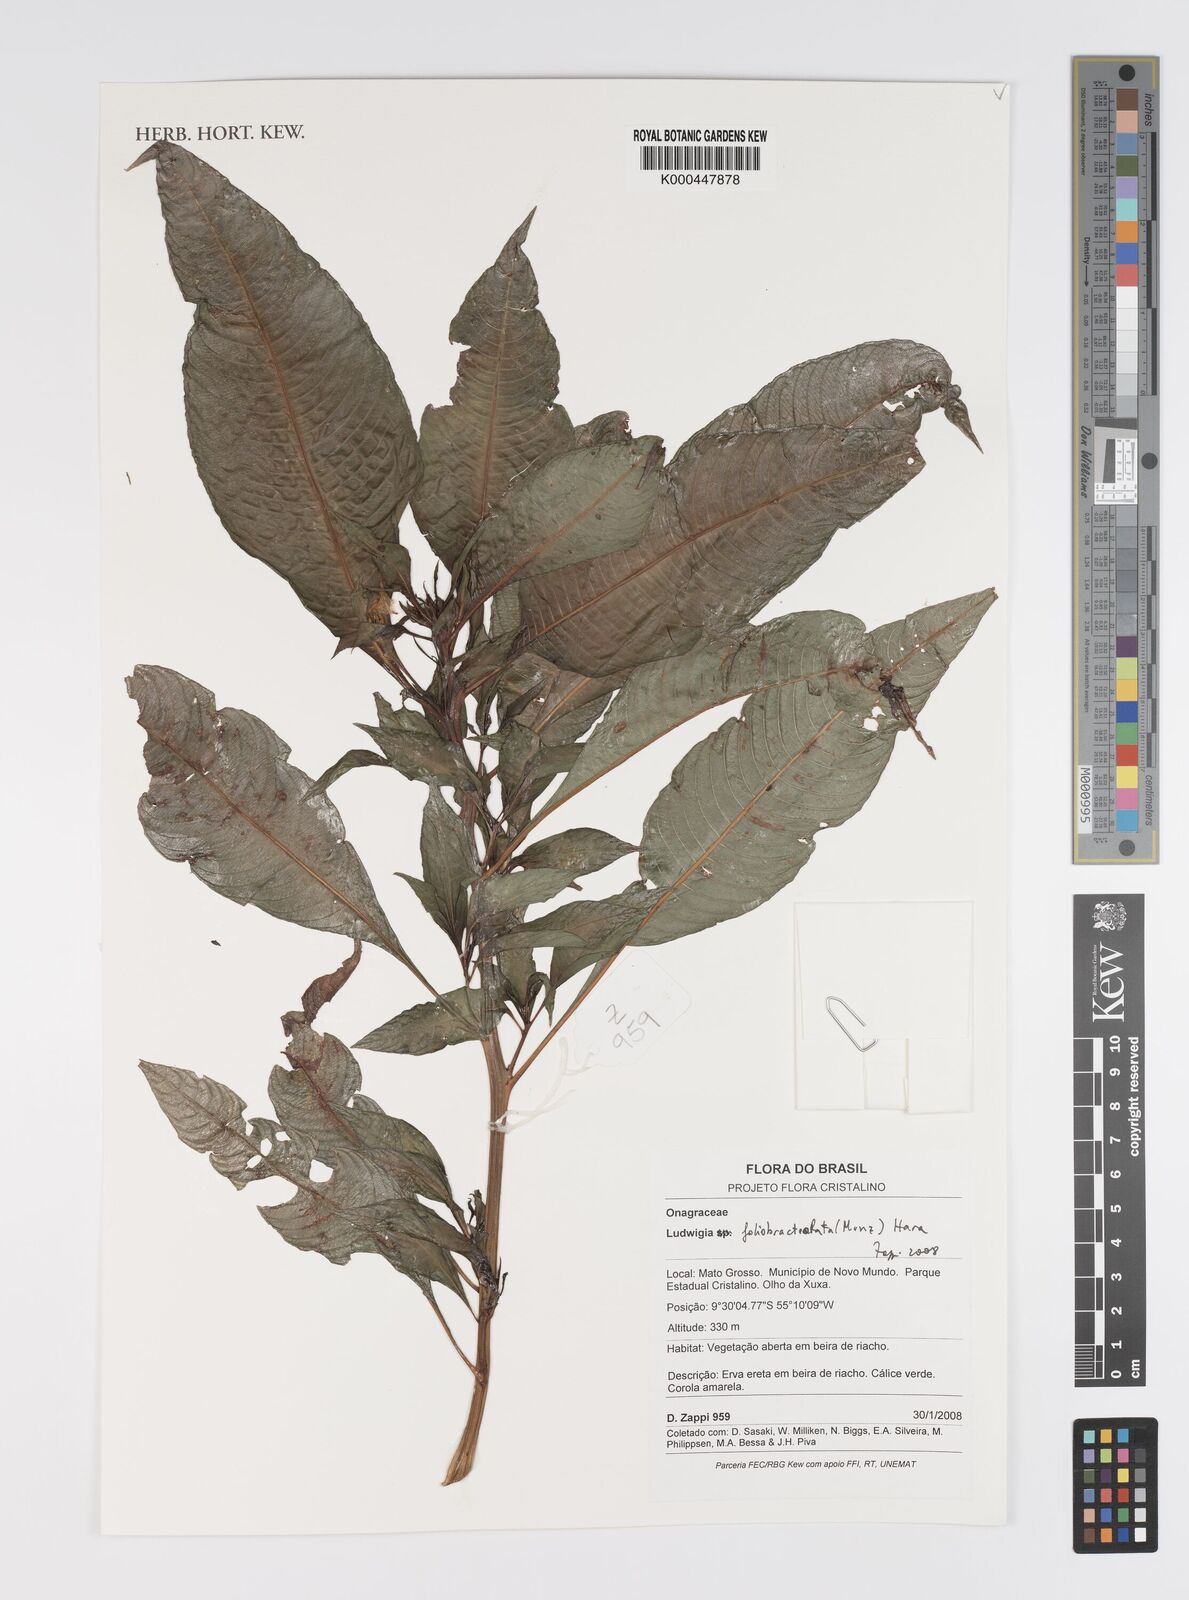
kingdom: Plantae
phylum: Tracheophyta
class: Magnoliopsida
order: Myrtales
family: Onagraceae
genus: Ludwigia
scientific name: Ludwigia foliobracteolata
